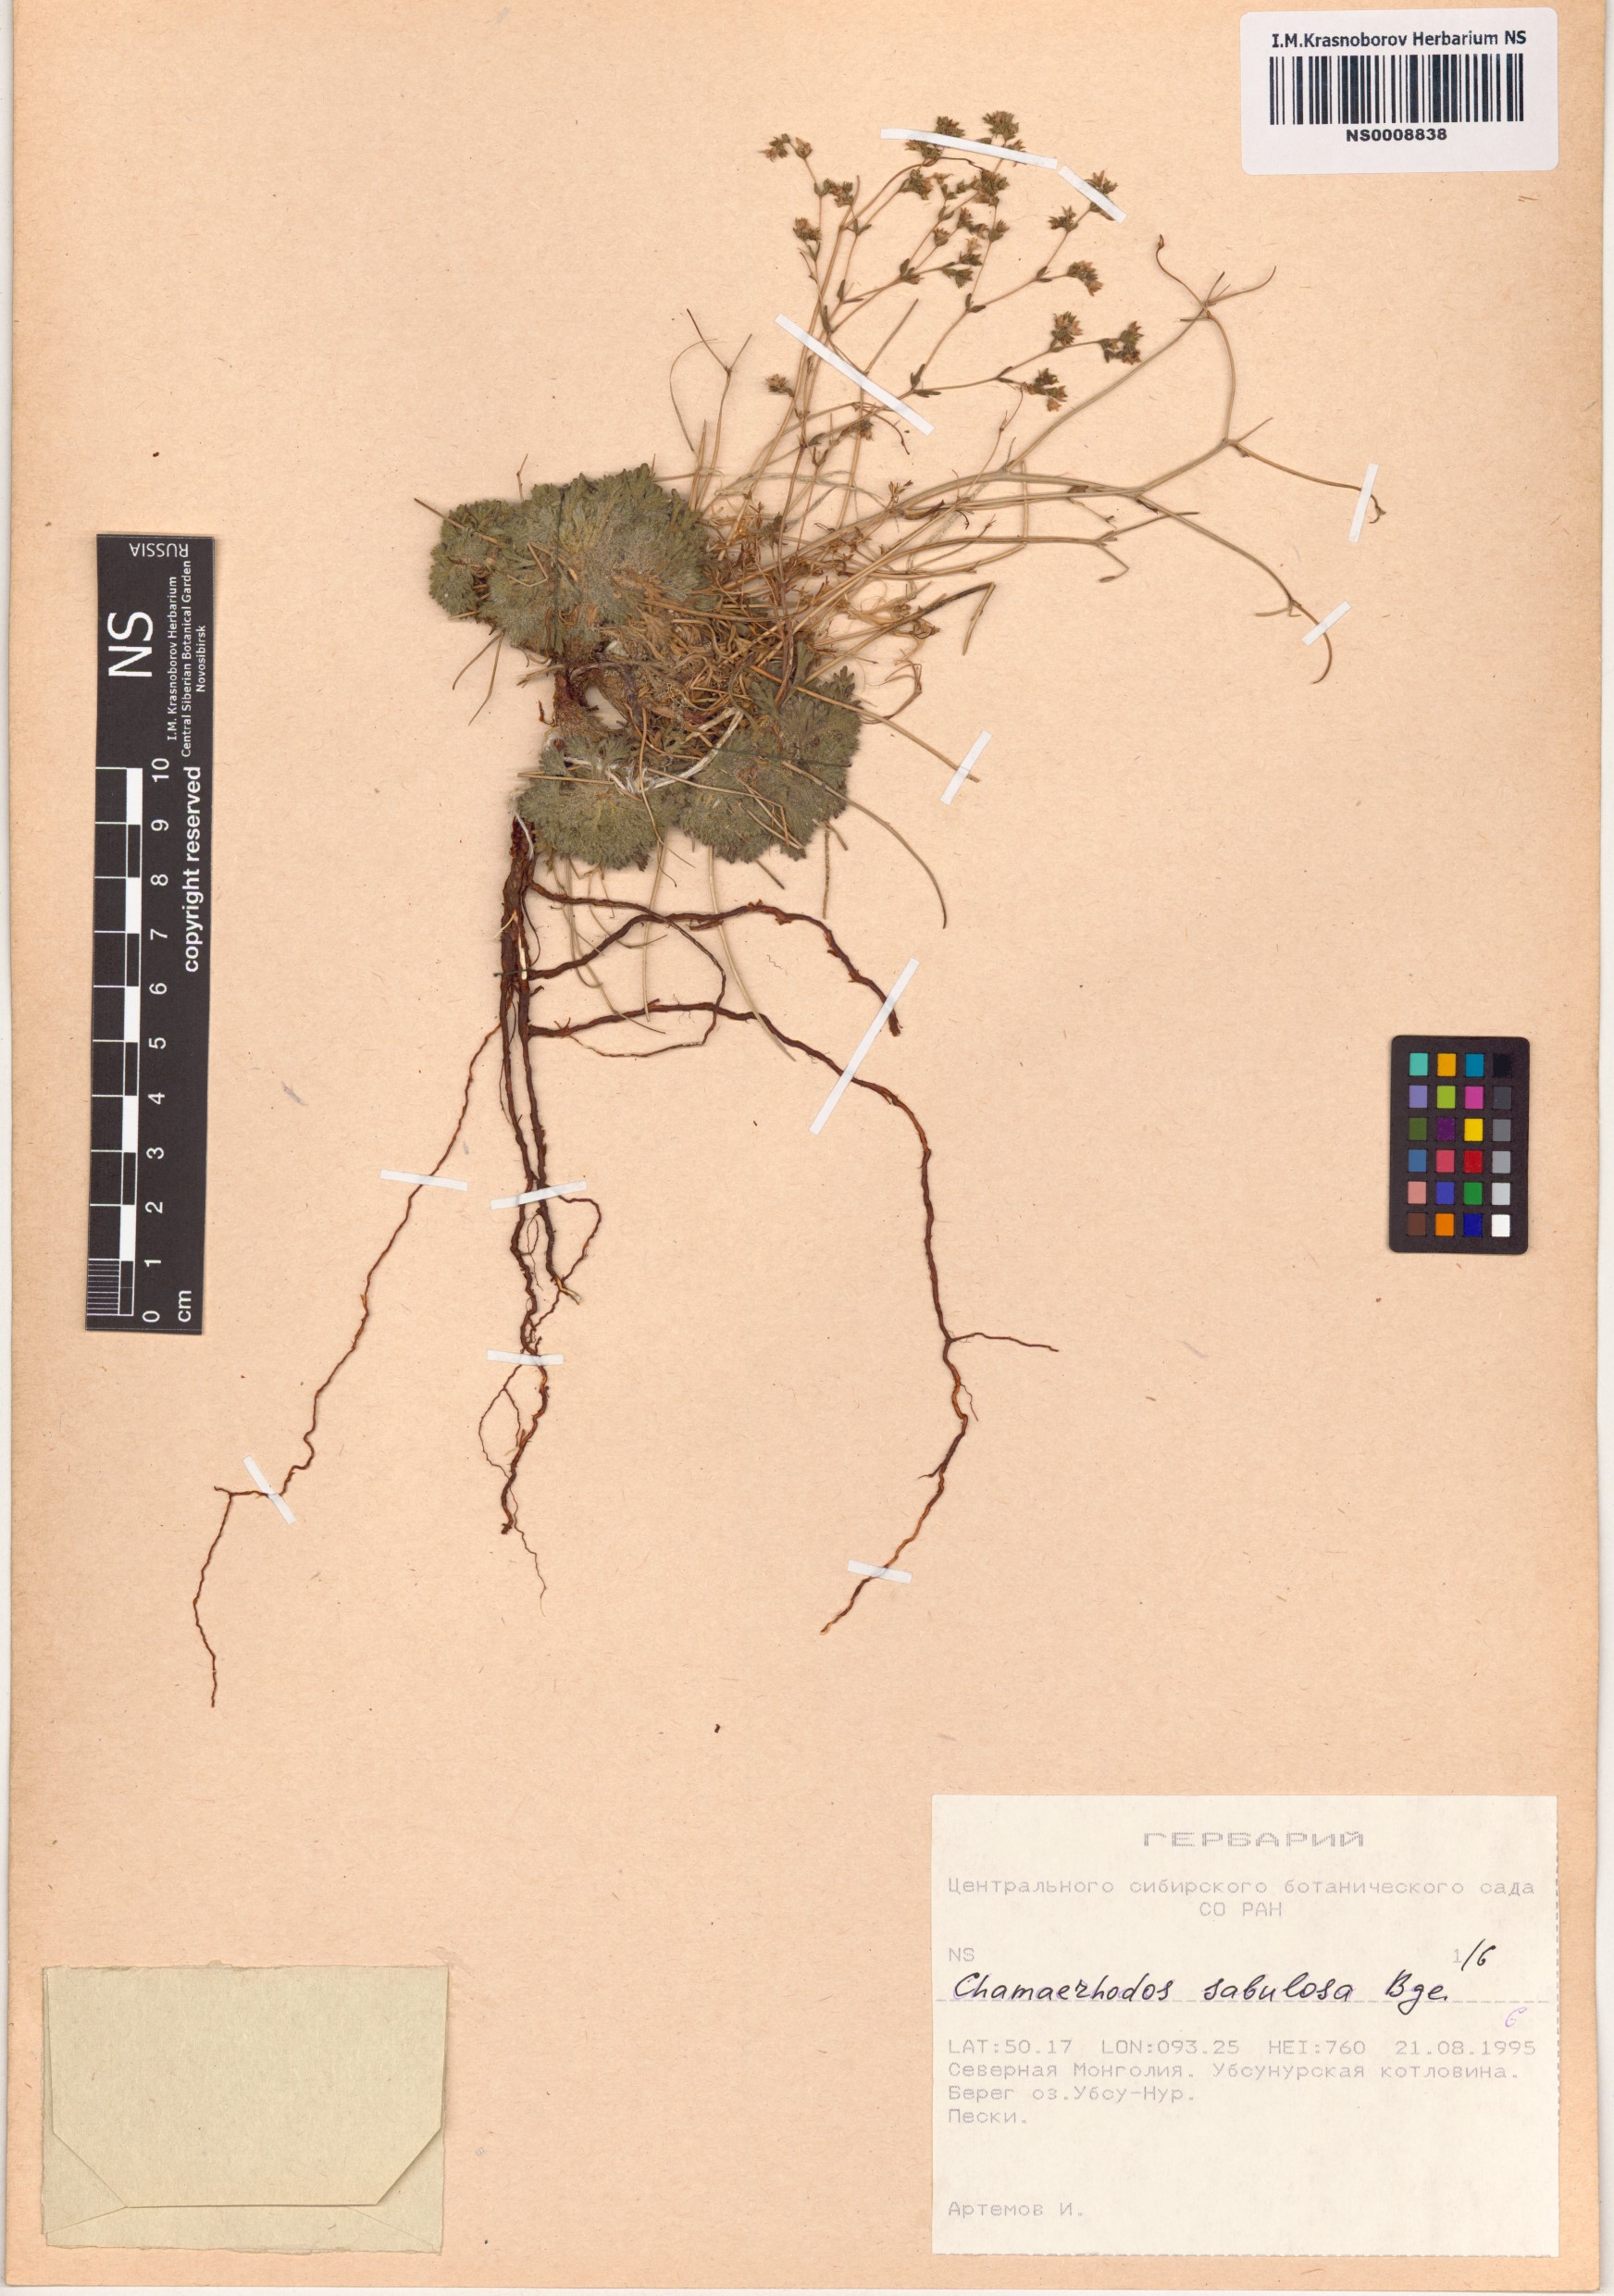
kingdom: Plantae
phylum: Tracheophyta
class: Magnoliopsida
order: Rosales
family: Rosaceae
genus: Chamaerhodos
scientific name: Chamaerhodos sabulosa
